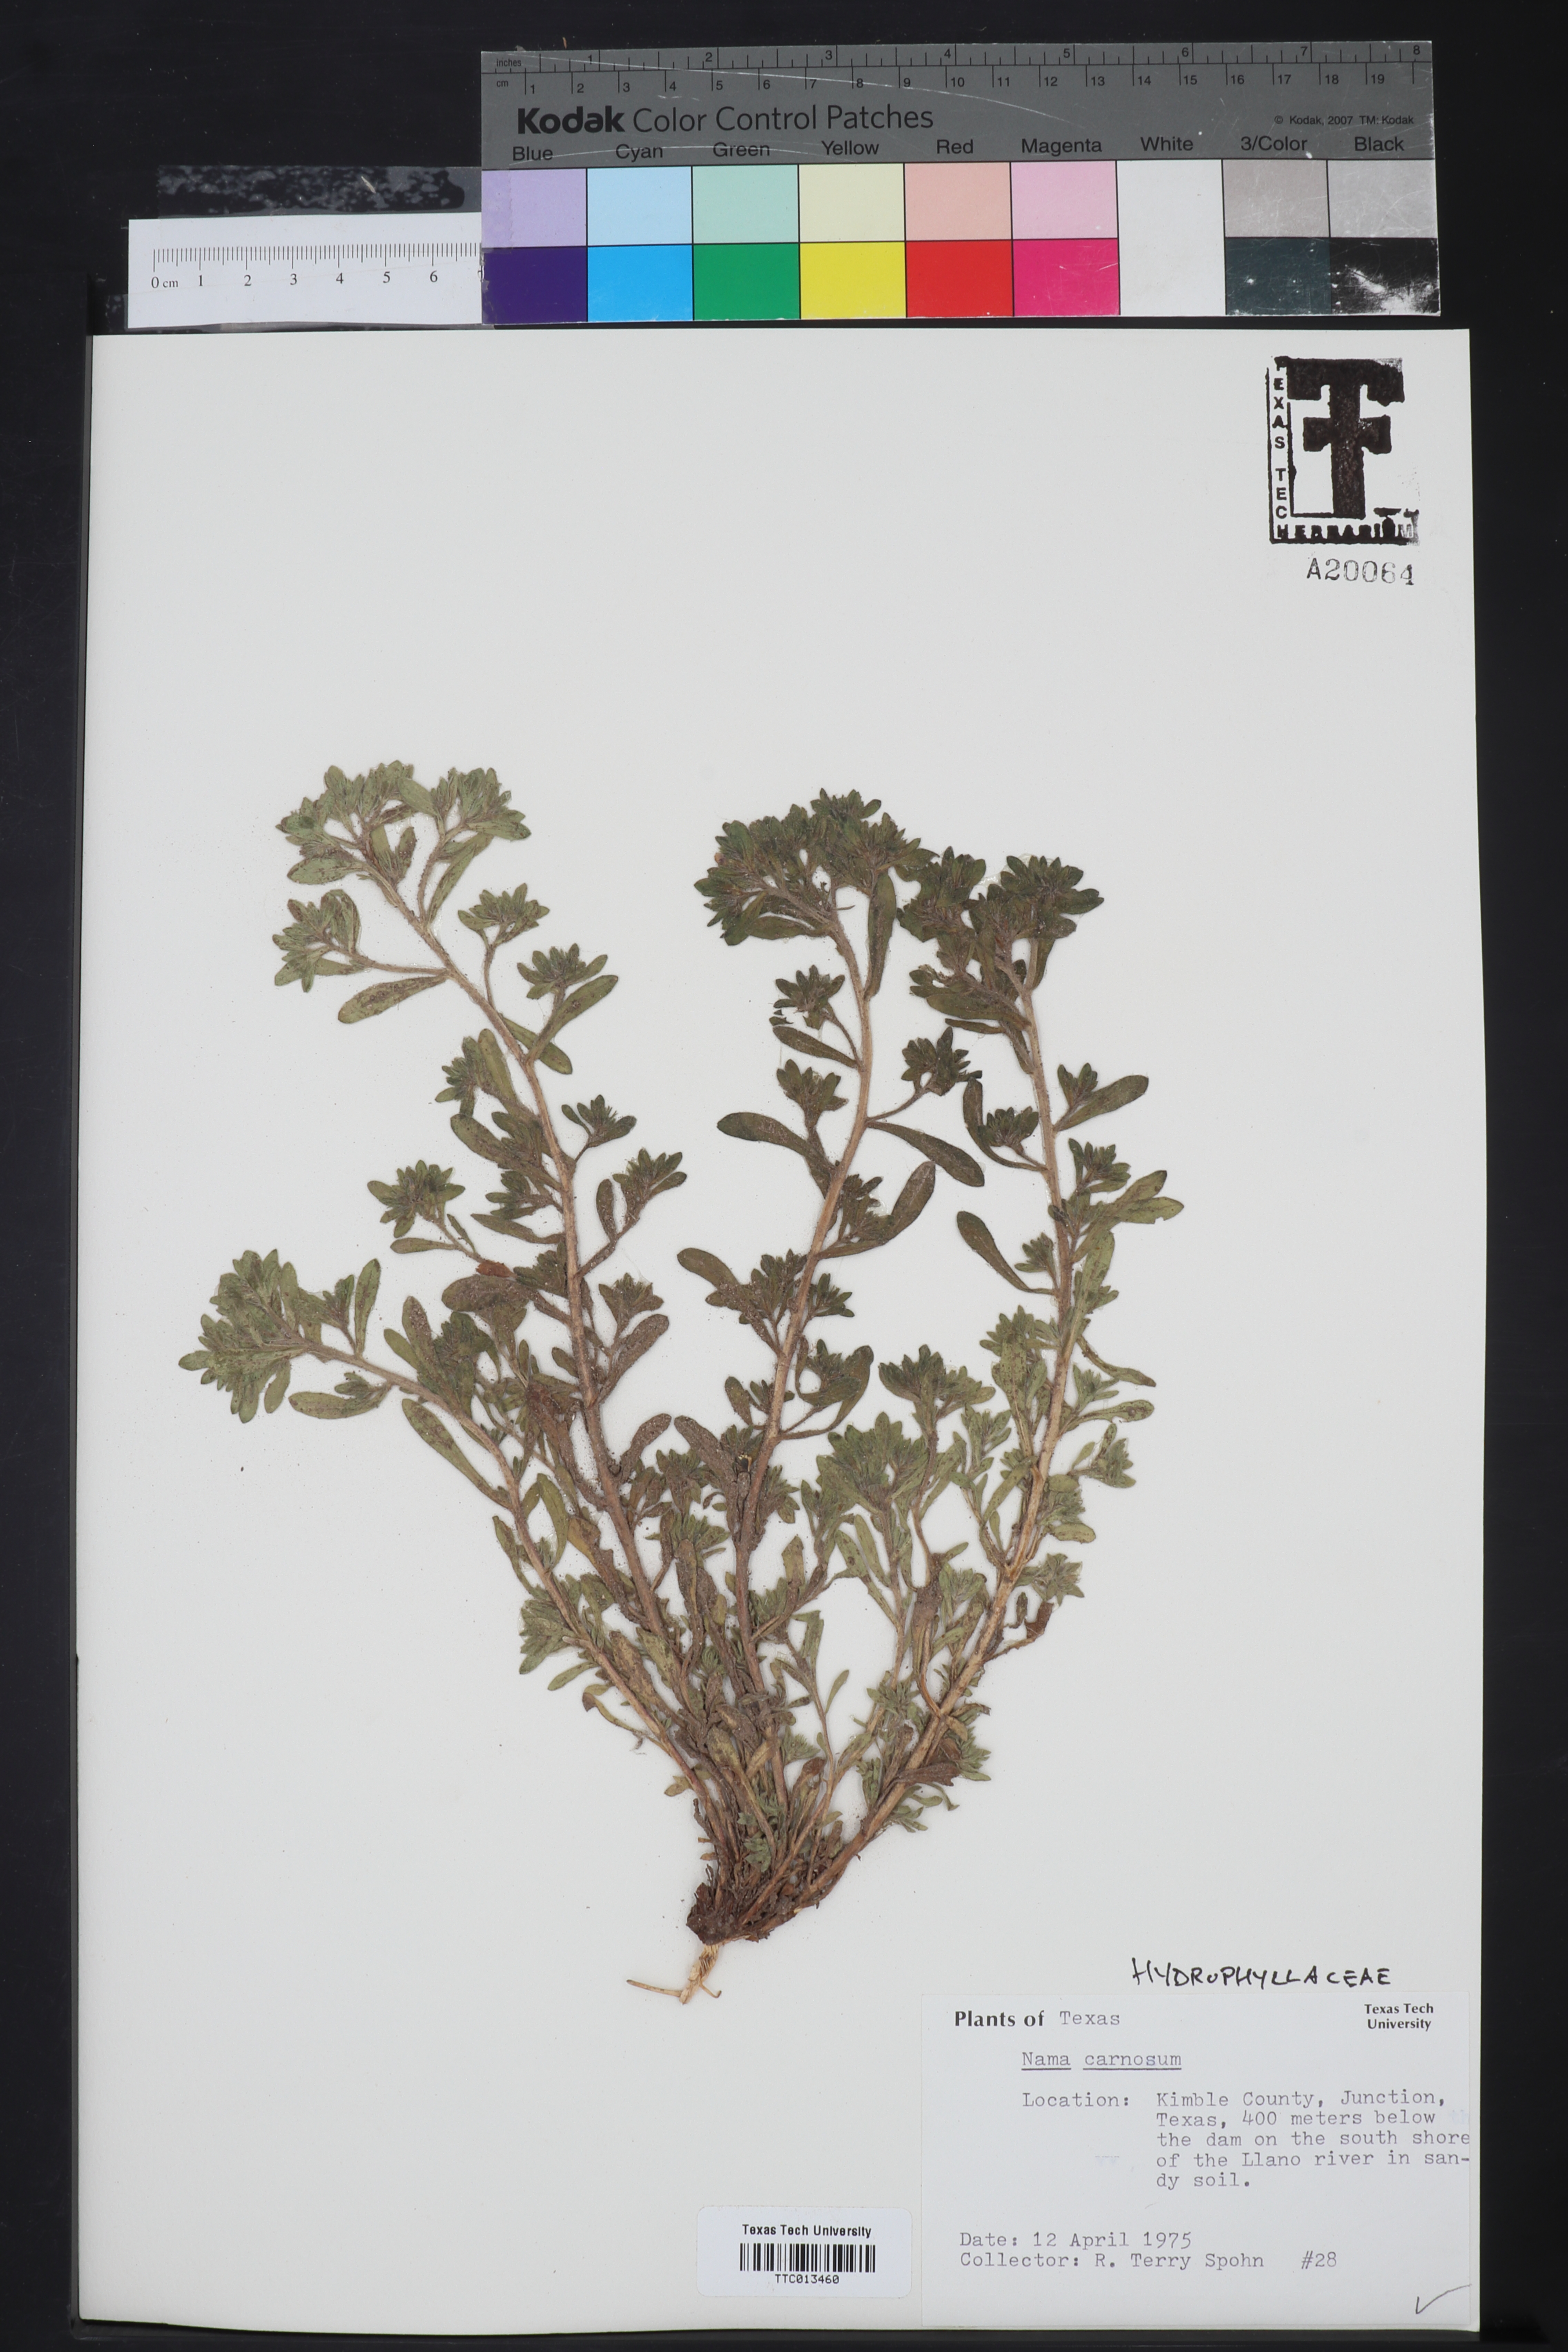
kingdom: Plantae
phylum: Tracheophyta
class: Magnoliopsida
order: Boraginales
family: Namaceae
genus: Andropus
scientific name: Andropus carnosus
